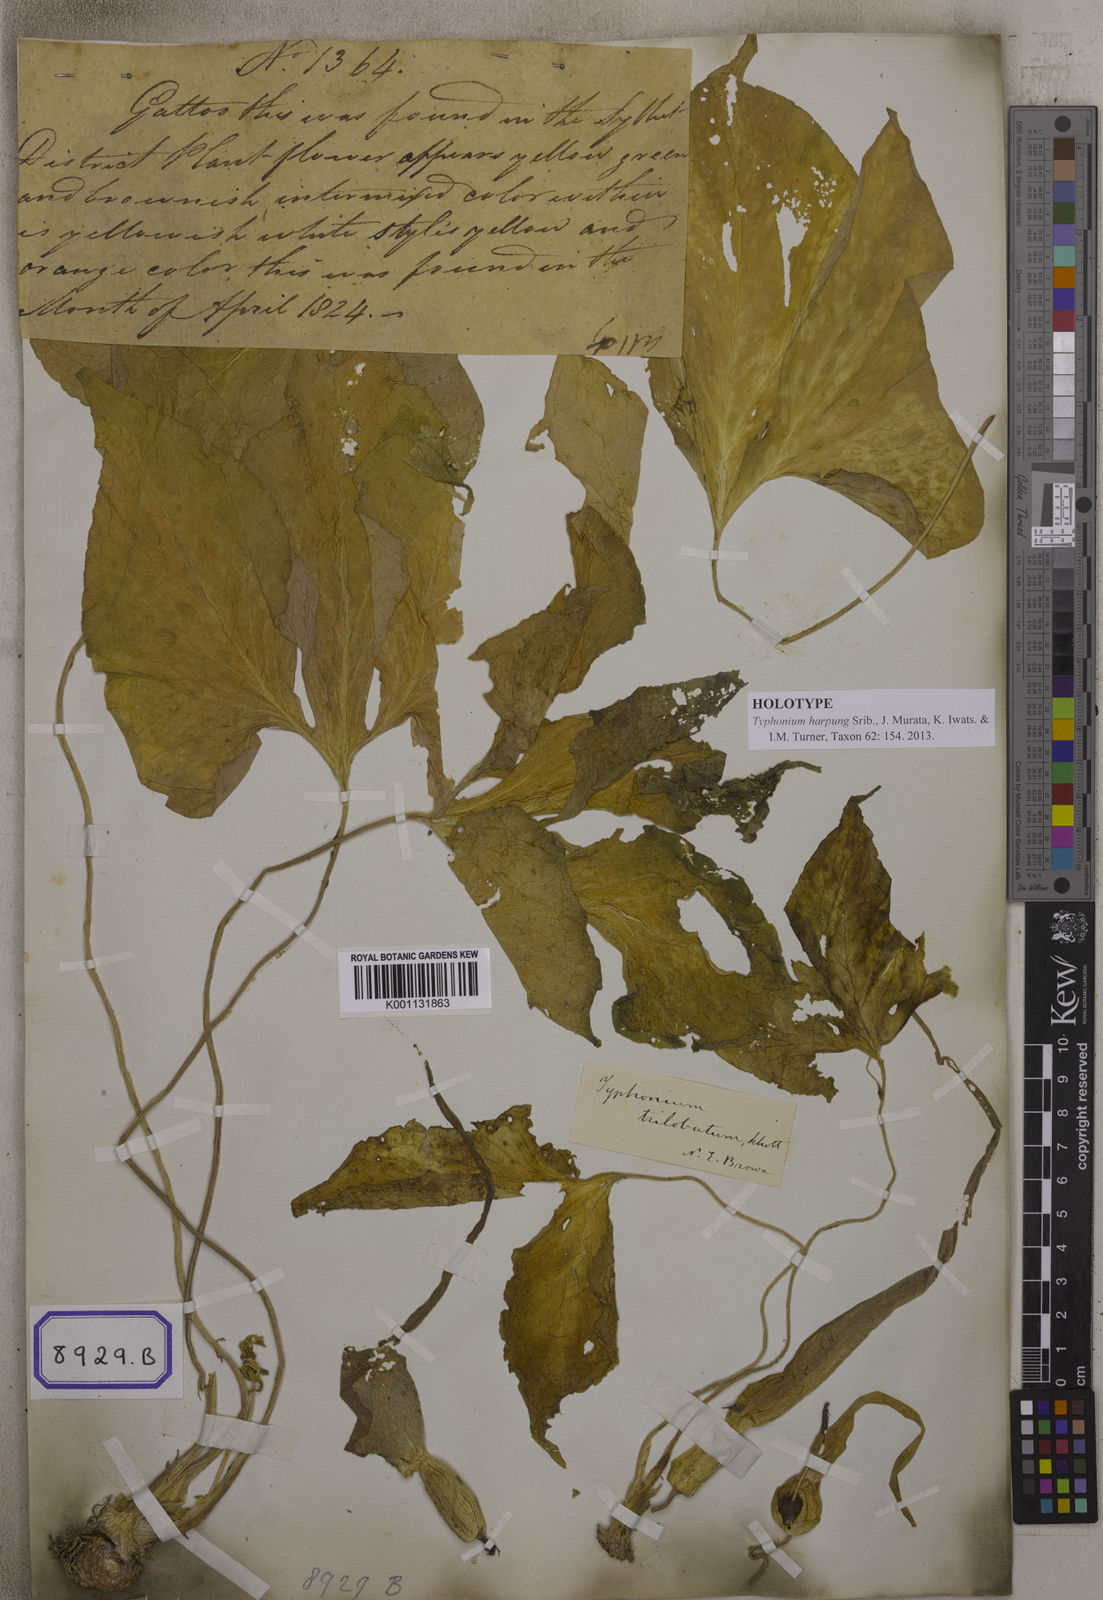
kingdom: Plantae
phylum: Tracheophyta
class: Liliopsida
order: Alismatales
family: Araceae
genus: Typhonium
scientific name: Typhonium trilobatum
